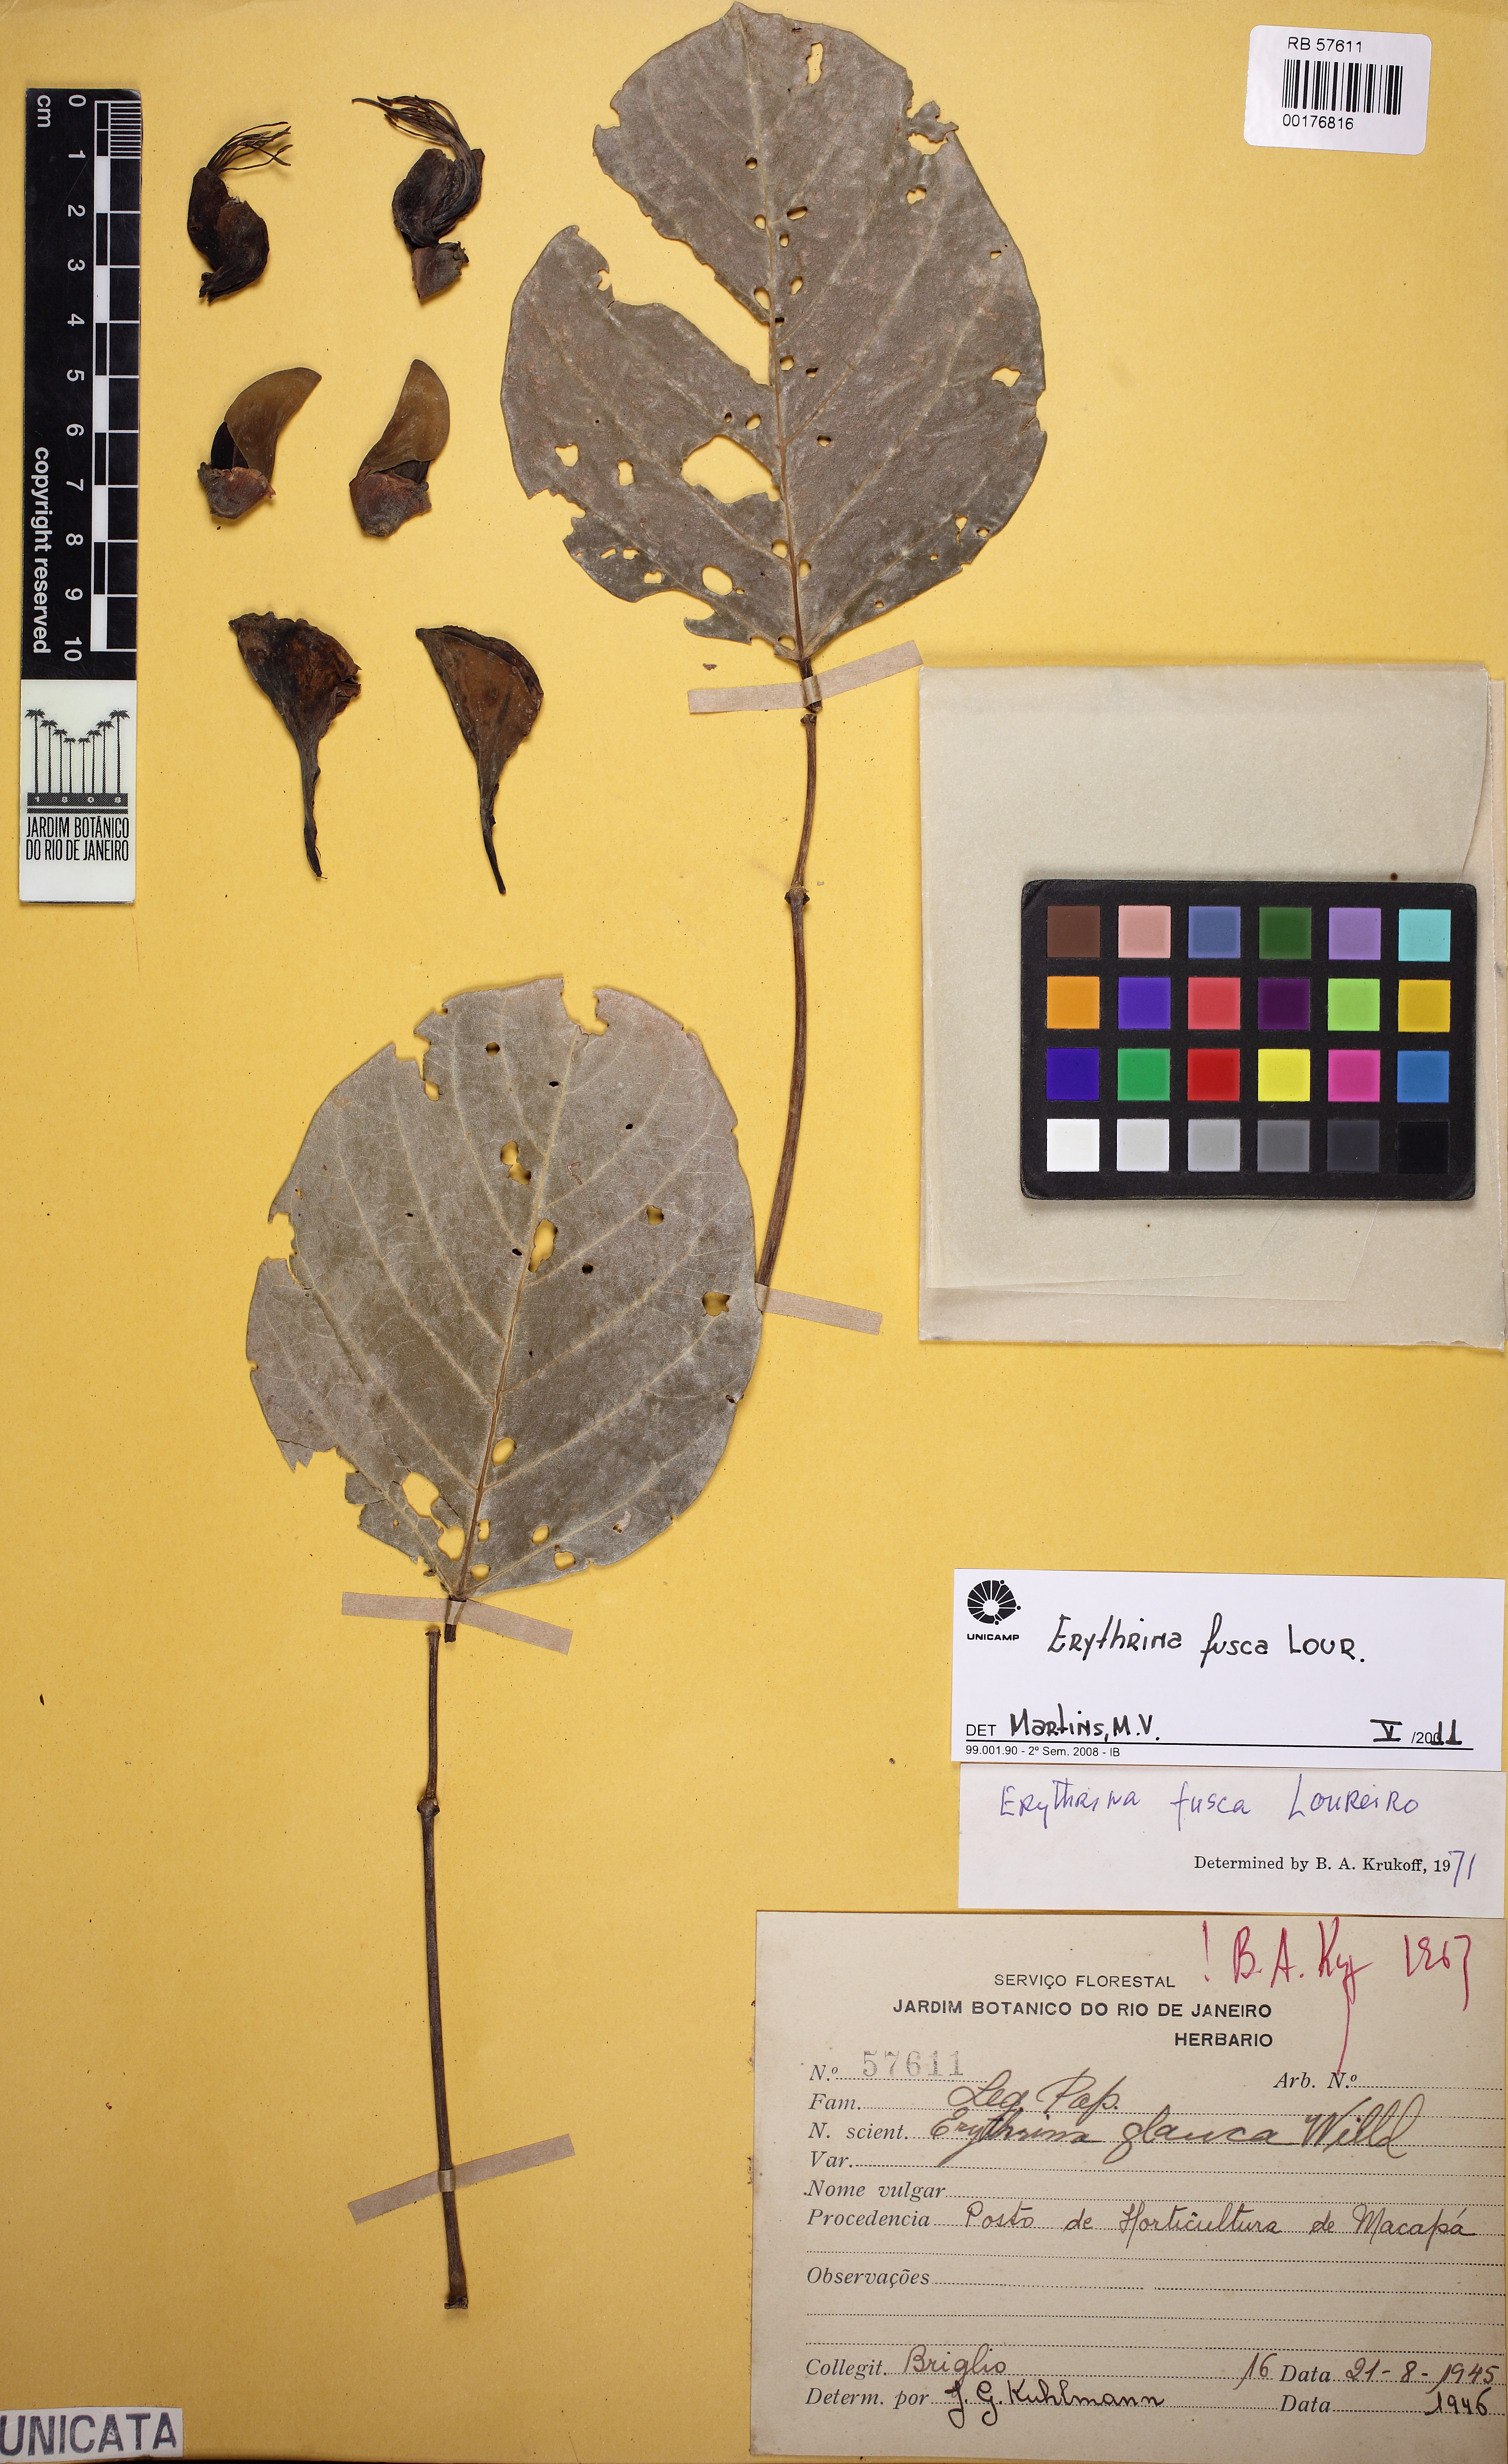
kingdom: Plantae
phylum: Tracheophyta
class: Magnoliopsida
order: Fabales
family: Fabaceae
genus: Erythrina
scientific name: Erythrina fusca
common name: Coral-bean
